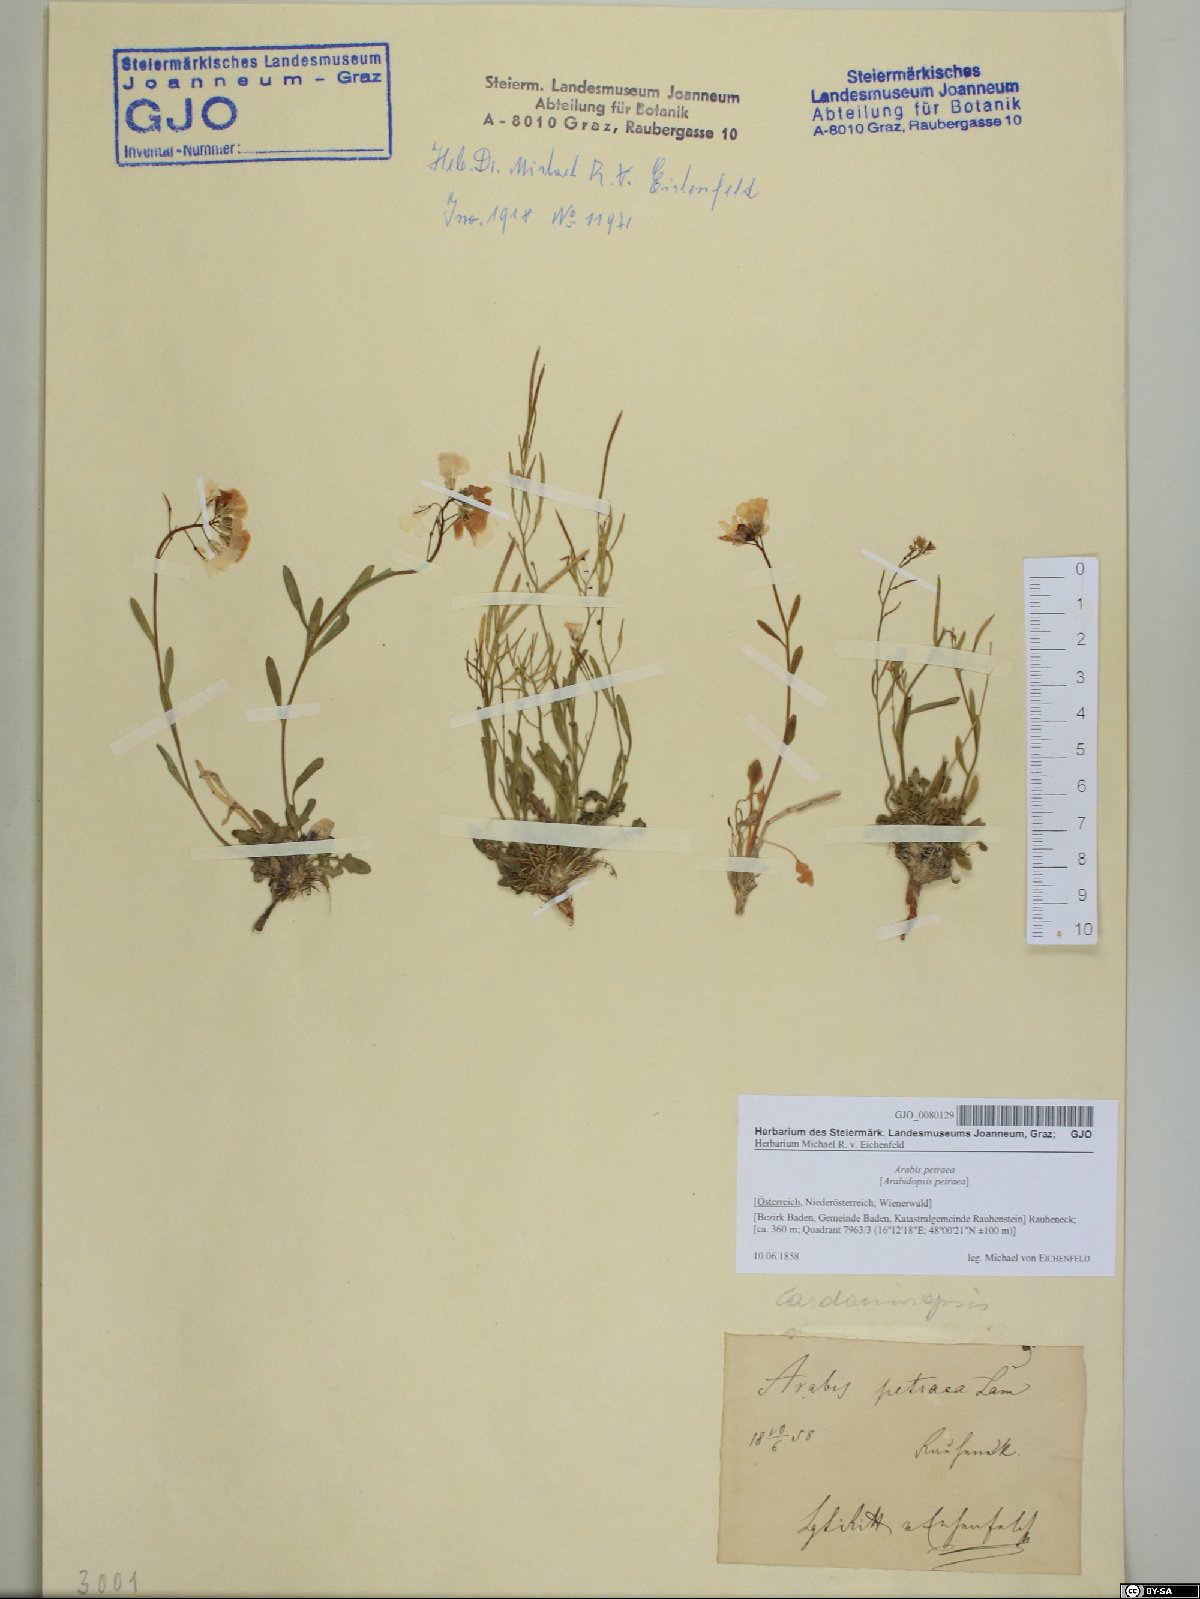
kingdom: Plantae
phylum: Tracheophyta
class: Magnoliopsida
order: Brassicales
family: Brassicaceae
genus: Arabidopsis
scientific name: Arabidopsis lyrata
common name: Lyrate rockcress
